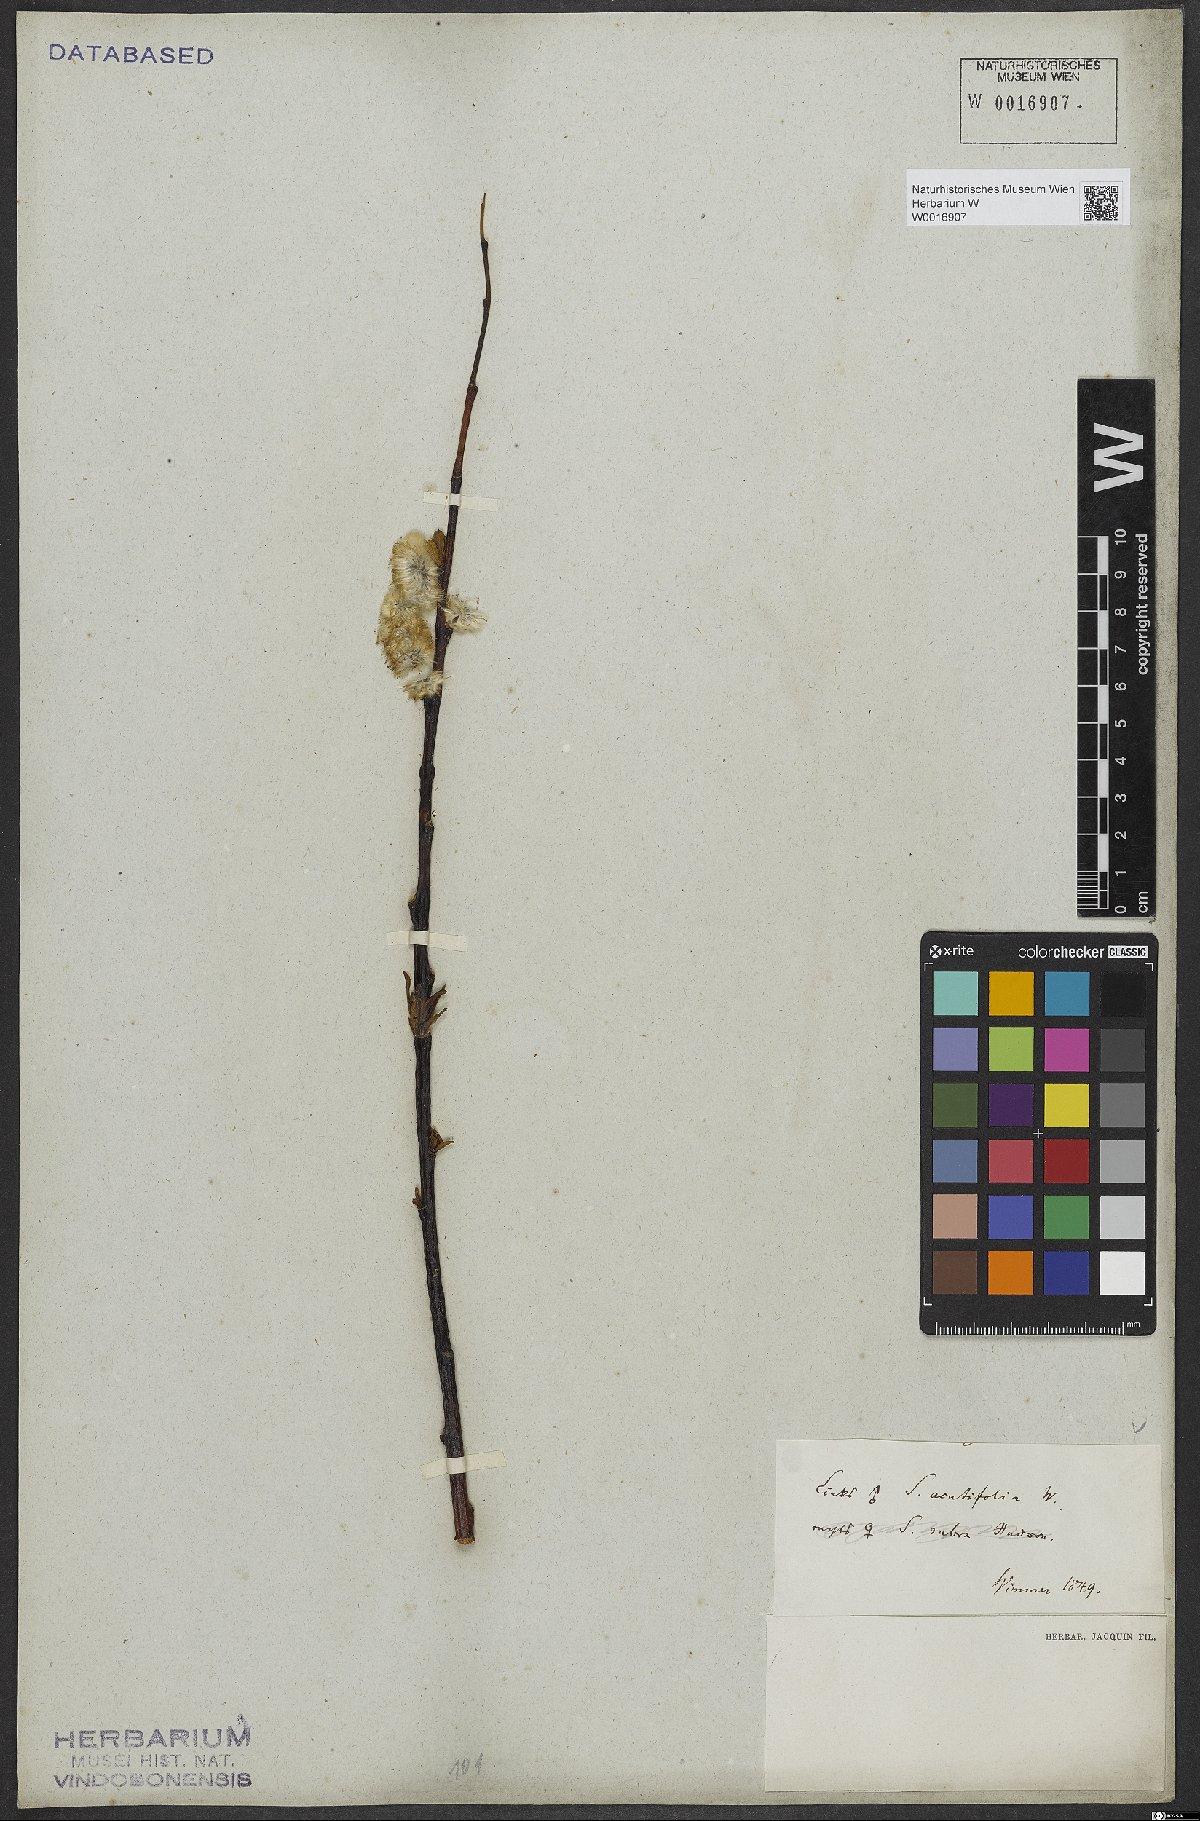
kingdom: Plantae
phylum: Tracheophyta
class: Magnoliopsida
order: Malpighiales
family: Salicaceae
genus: Salix
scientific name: Salix acutifolia
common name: Siberian violet-willow
